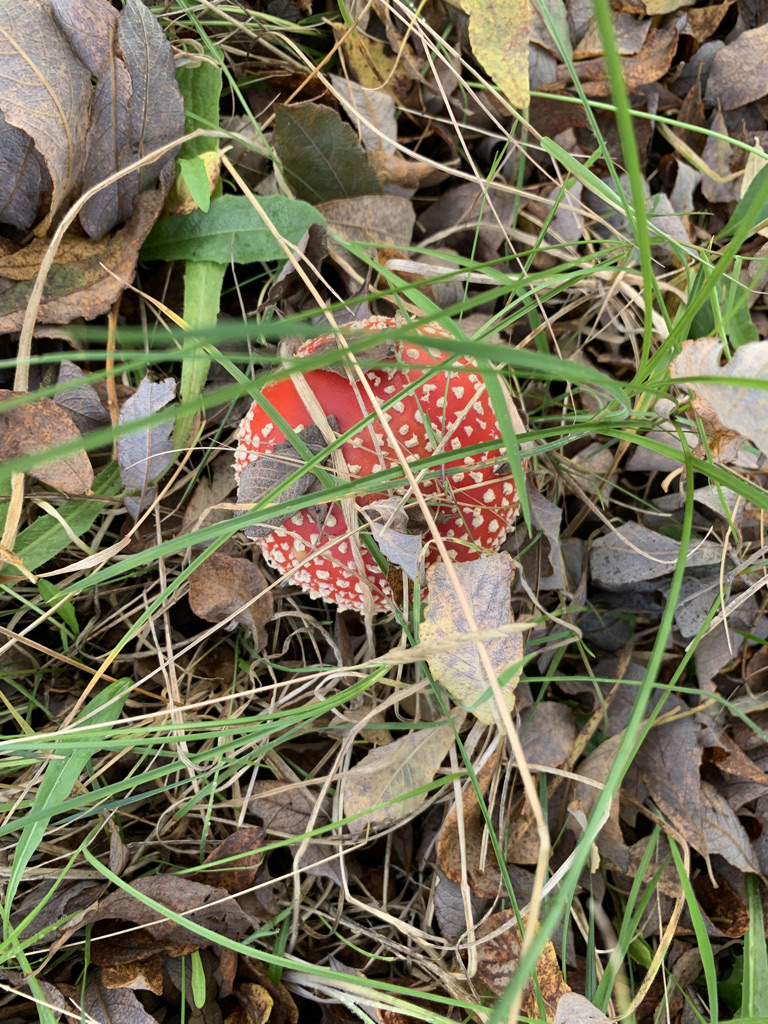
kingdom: Fungi
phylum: Basidiomycota
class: Agaricomycetes
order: Agaricales
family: Amanitaceae
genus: Amanita
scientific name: Amanita muscaria
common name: rød fluesvamp
